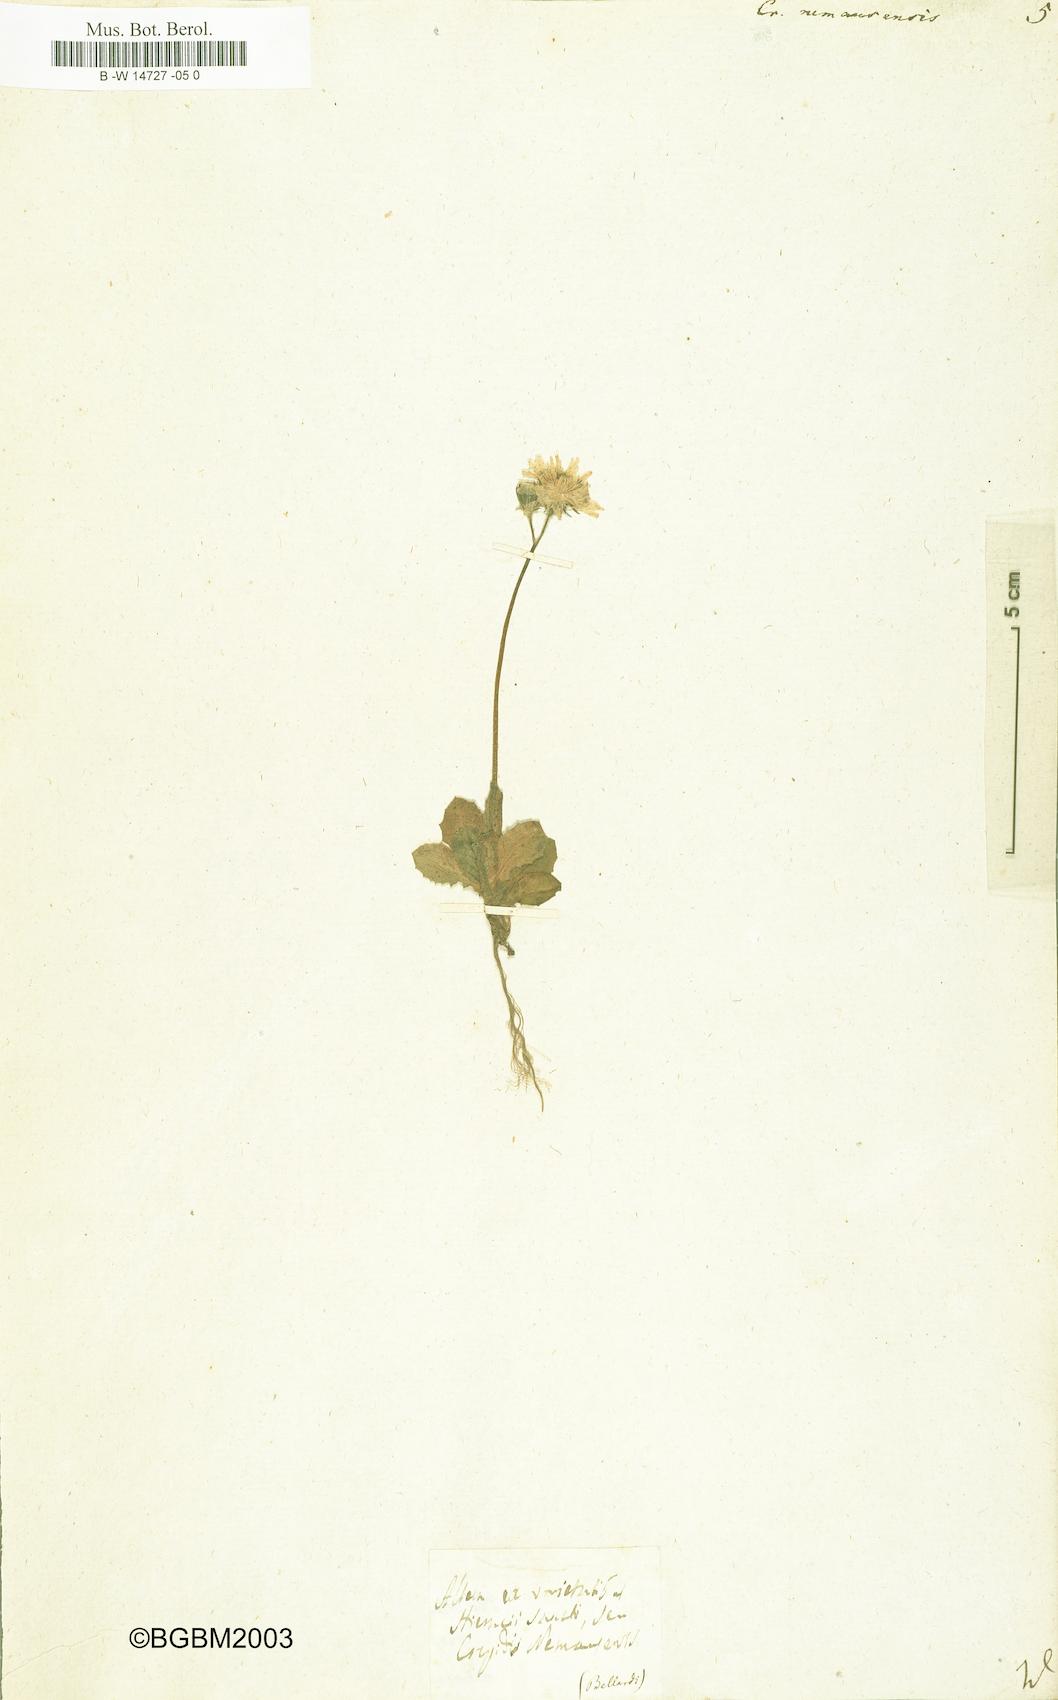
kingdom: Plantae
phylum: Tracheophyta
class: Magnoliopsida
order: Asterales
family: Asteraceae
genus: Crepis
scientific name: Crepis nemausensis
